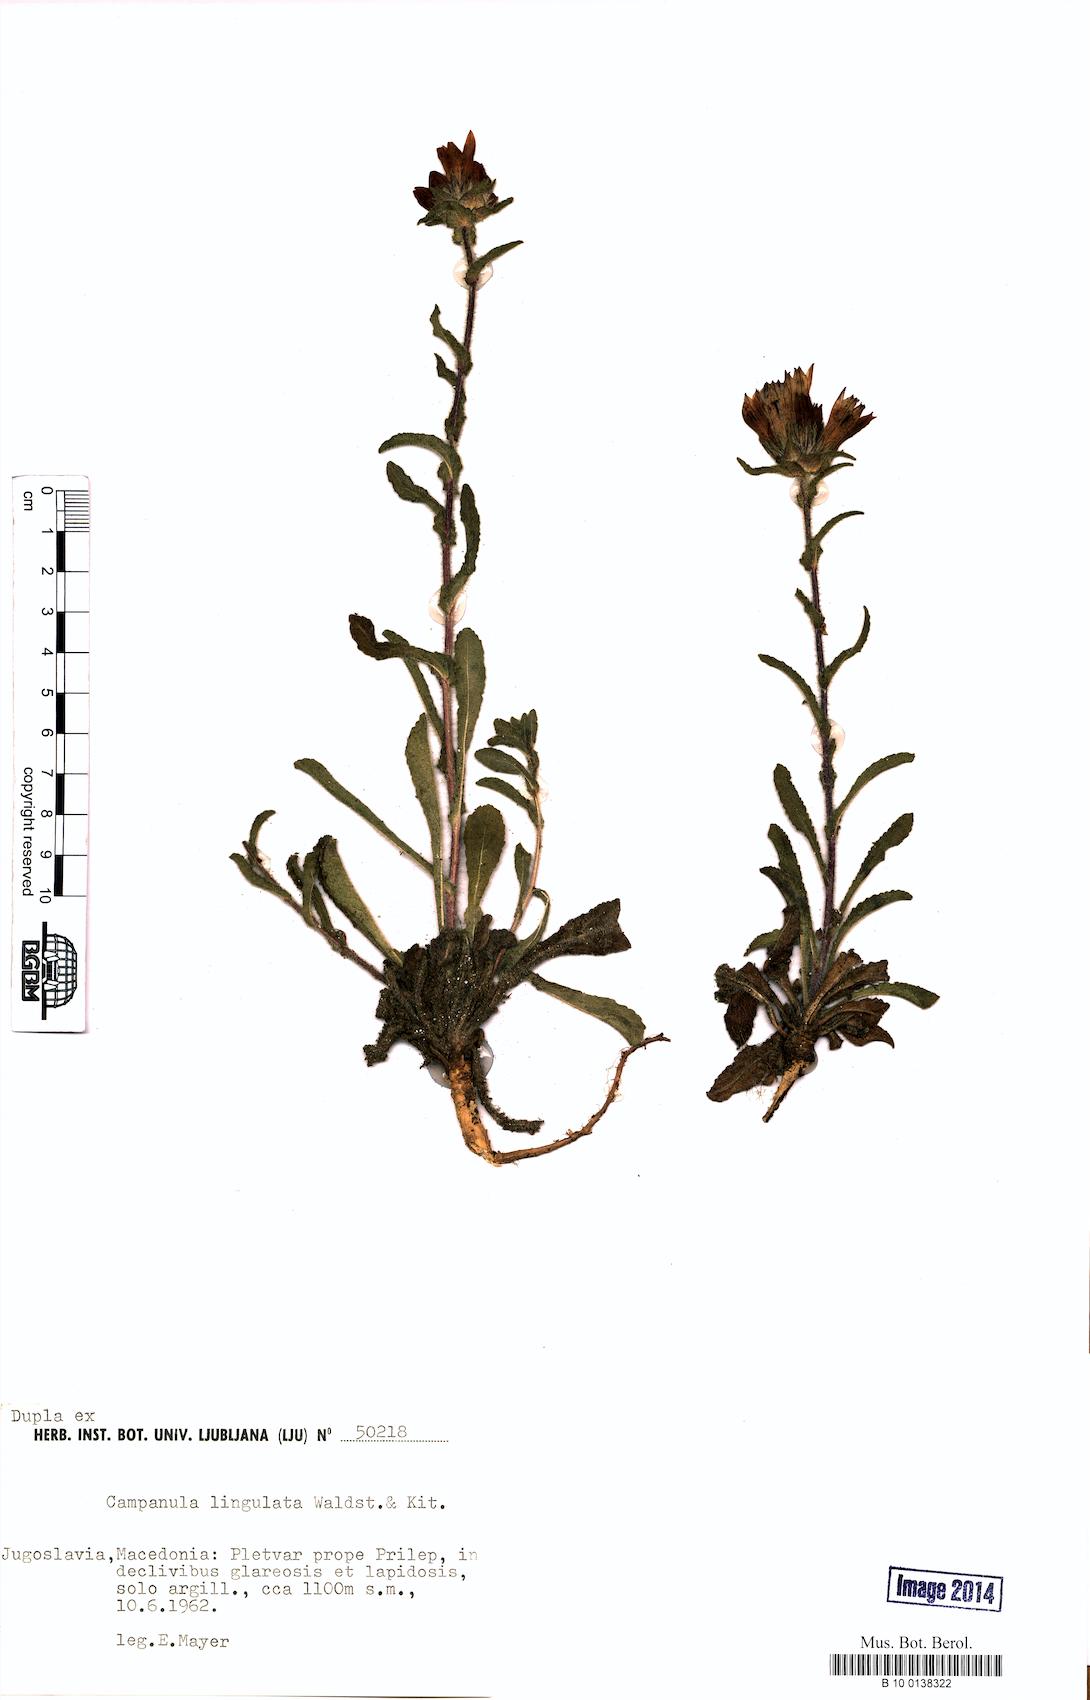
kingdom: Plantae
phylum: Tracheophyta
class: Magnoliopsida
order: Asterales
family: Campanulaceae
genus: Campanula
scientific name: Campanula lingulata
